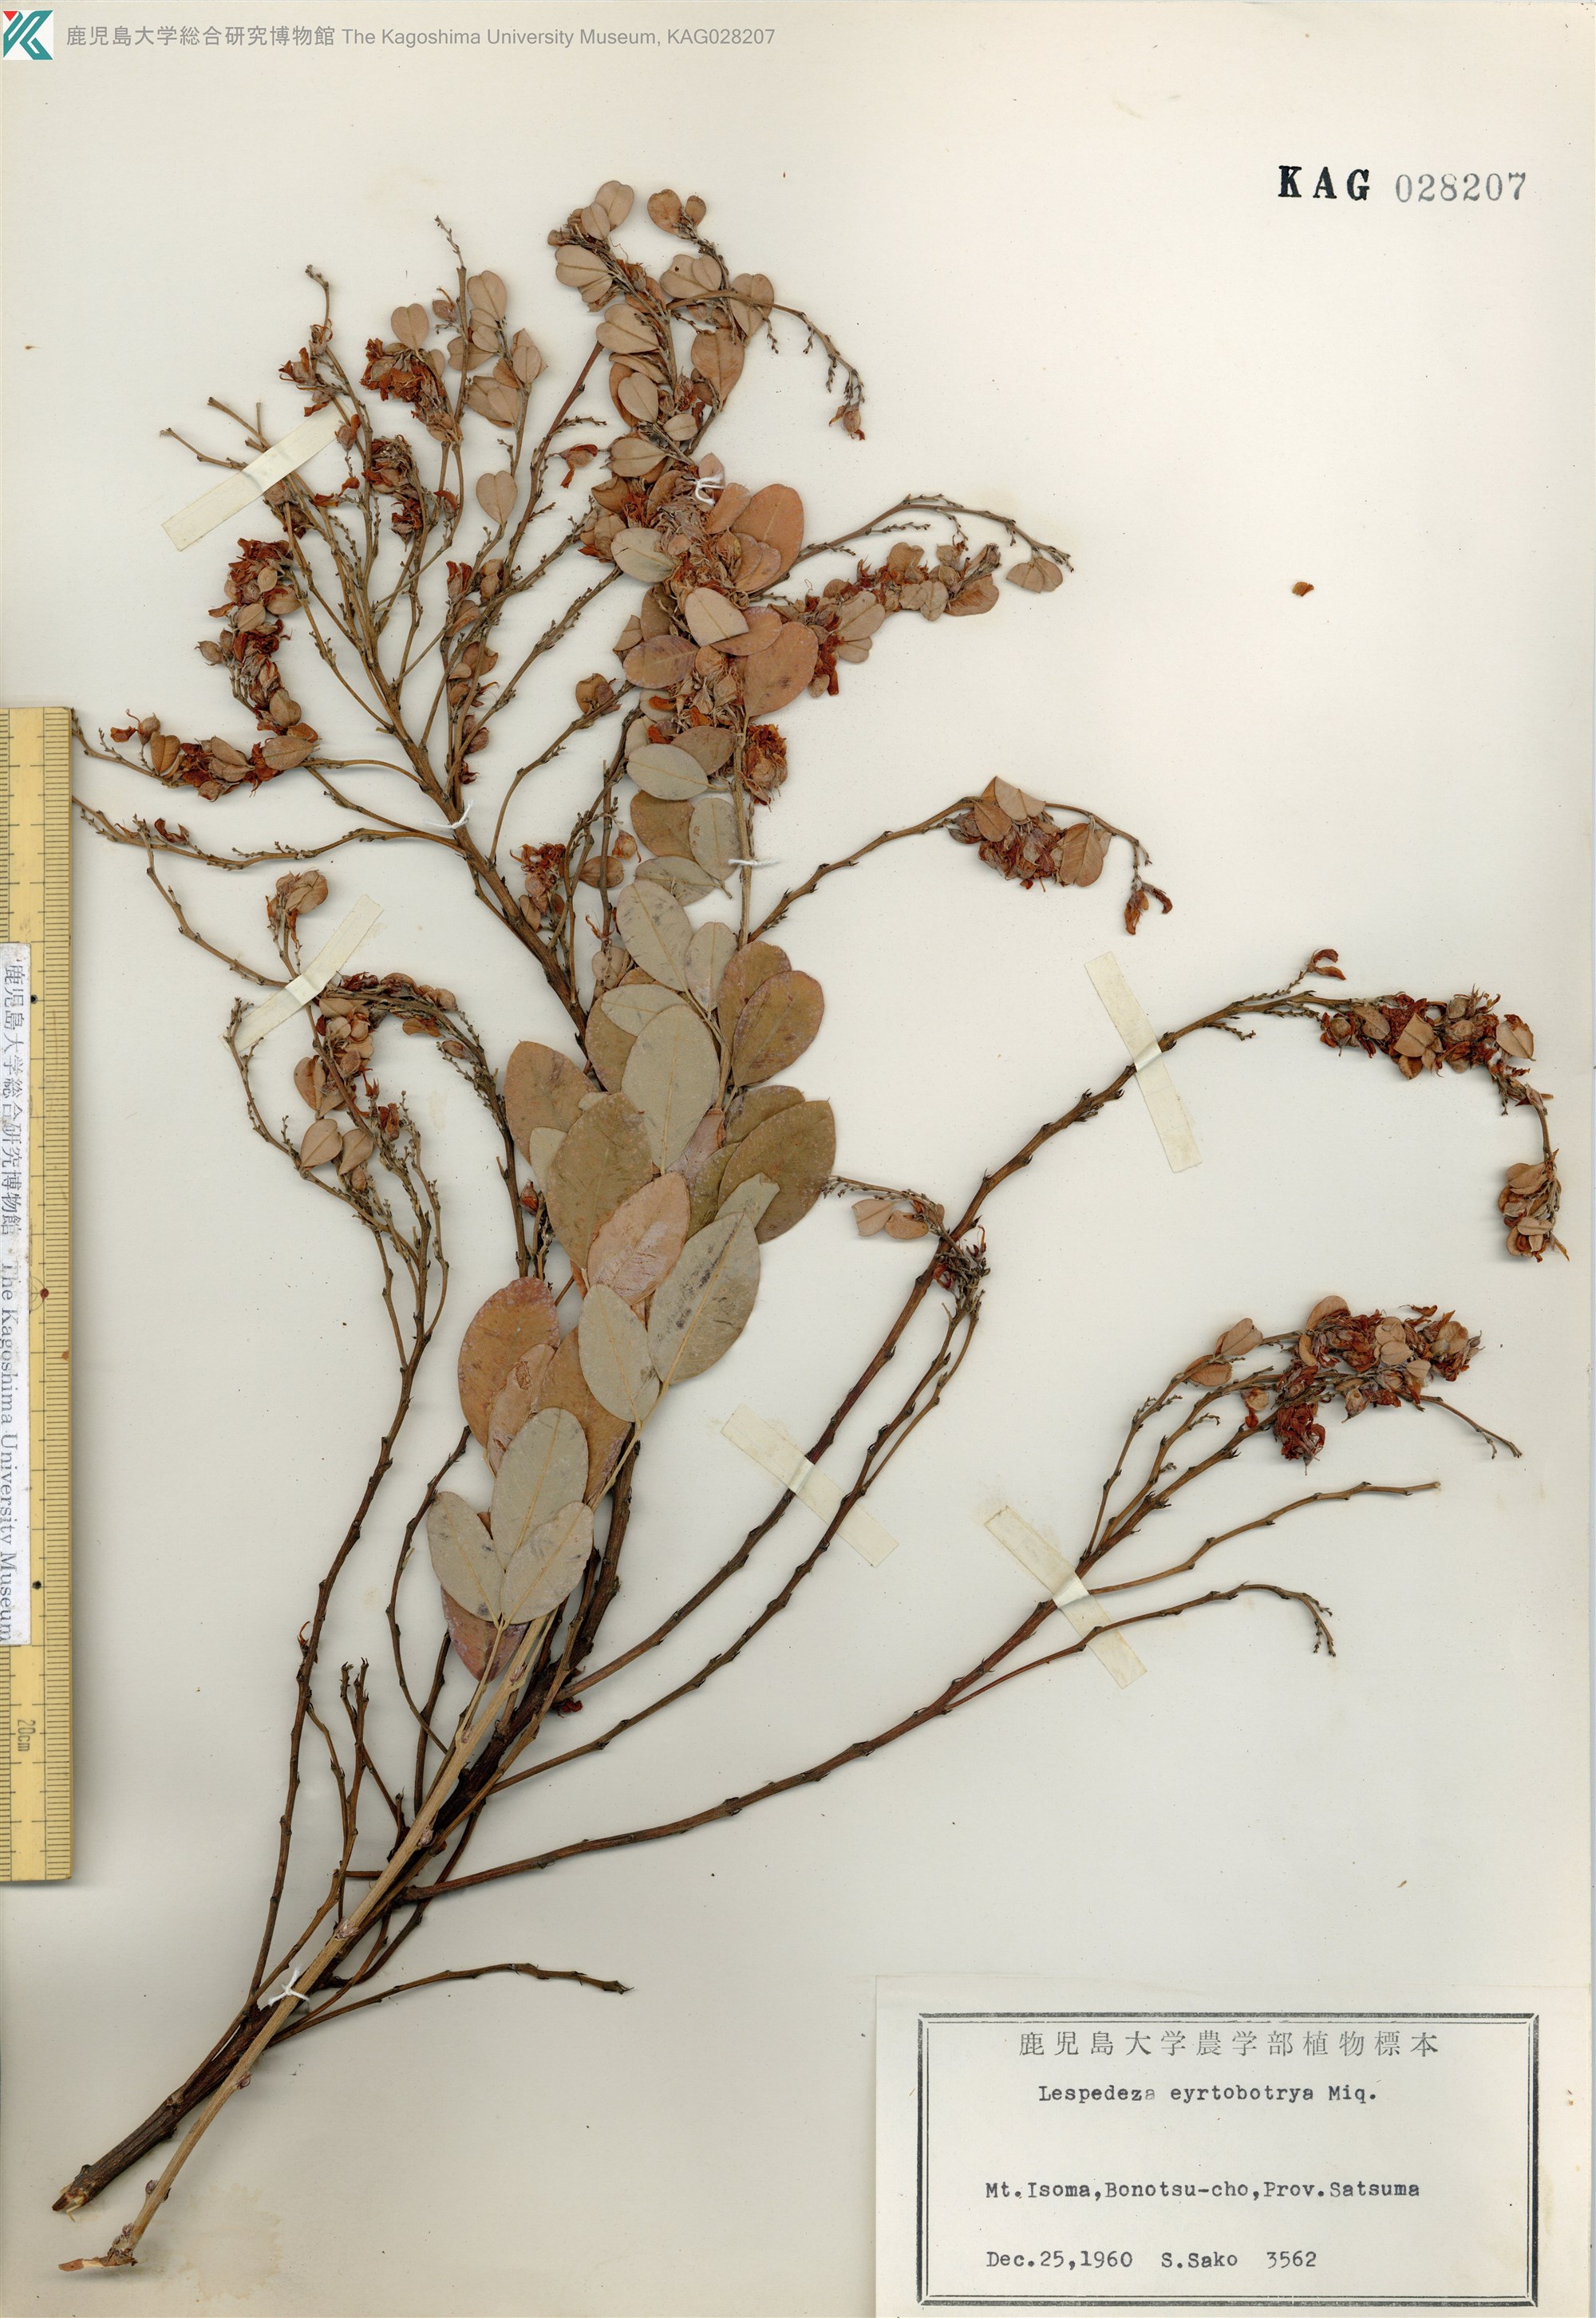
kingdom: Plantae
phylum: Tracheophyta
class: Magnoliopsida
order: Fabales
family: Fabaceae
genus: Lespedeza
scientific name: Lespedeza cyrtobotrya
